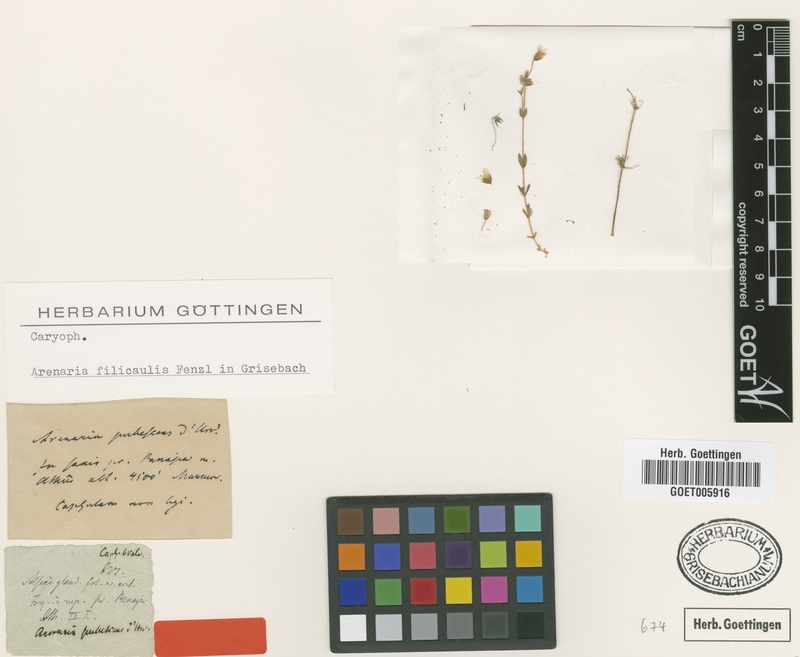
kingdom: Plantae
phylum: Tracheophyta
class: Magnoliopsida
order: Caryophyllales
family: Caryophyllaceae
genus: Arenaria
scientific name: Arenaria filicaulis
